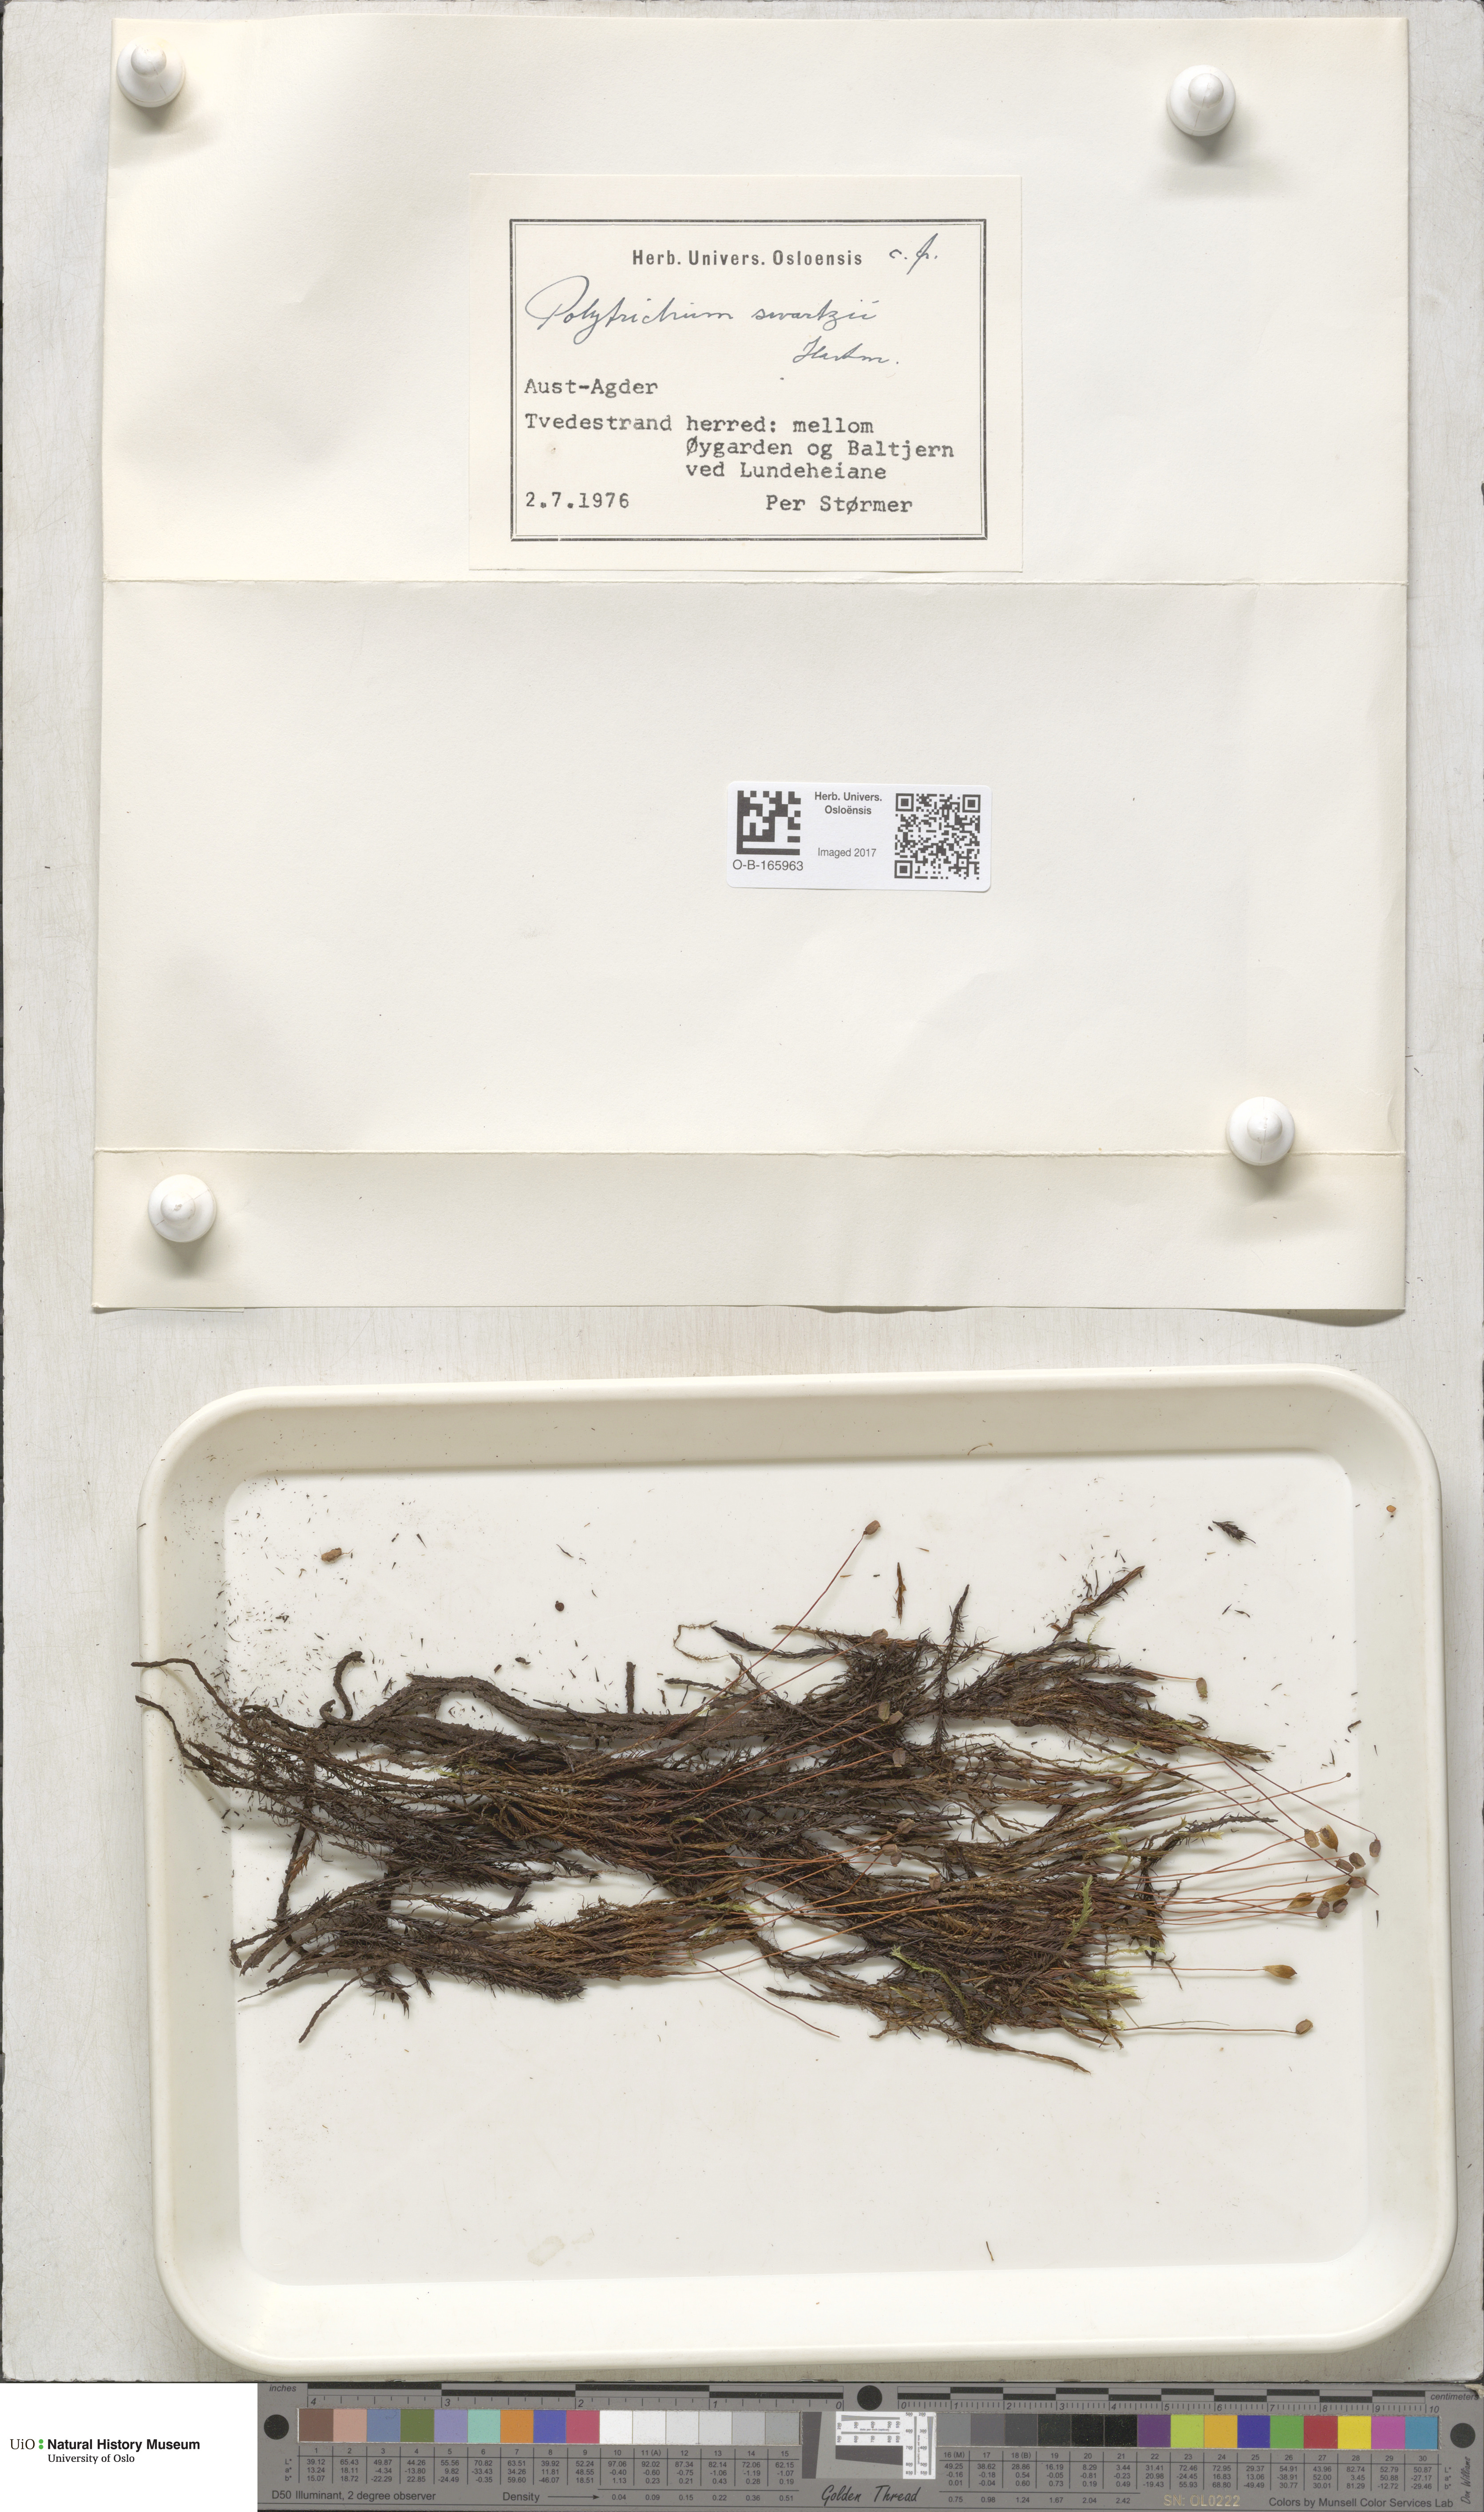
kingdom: Plantae
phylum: Bryophyta
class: Polytrichopsida
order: Polytrichales
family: Polytrichaceae
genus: Polytrichum
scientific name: Polytrichum swartzii
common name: Swartz's haircap moss
